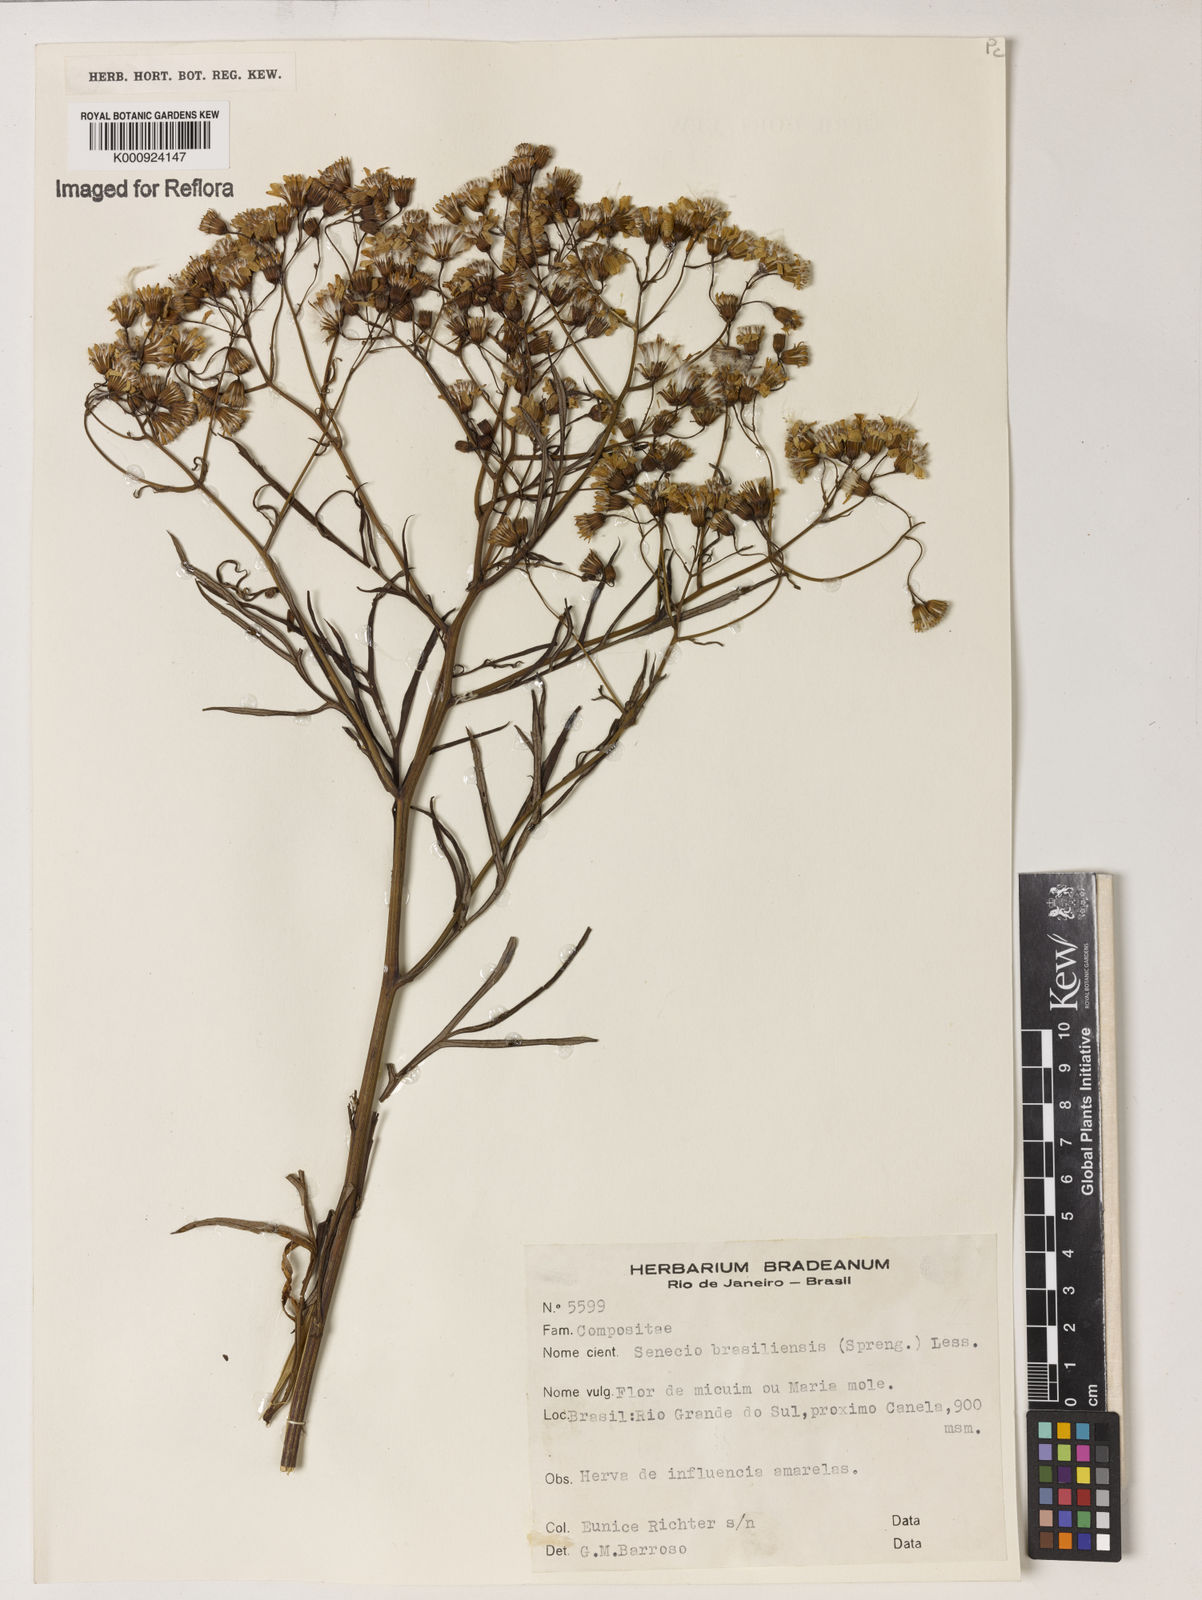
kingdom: Plantae
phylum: Tracheophyta
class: Magnoliopsida
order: Asterales
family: Asteraceae
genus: Senecio
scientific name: Senecio brasiliensis
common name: Hemp-leaf ragwort
